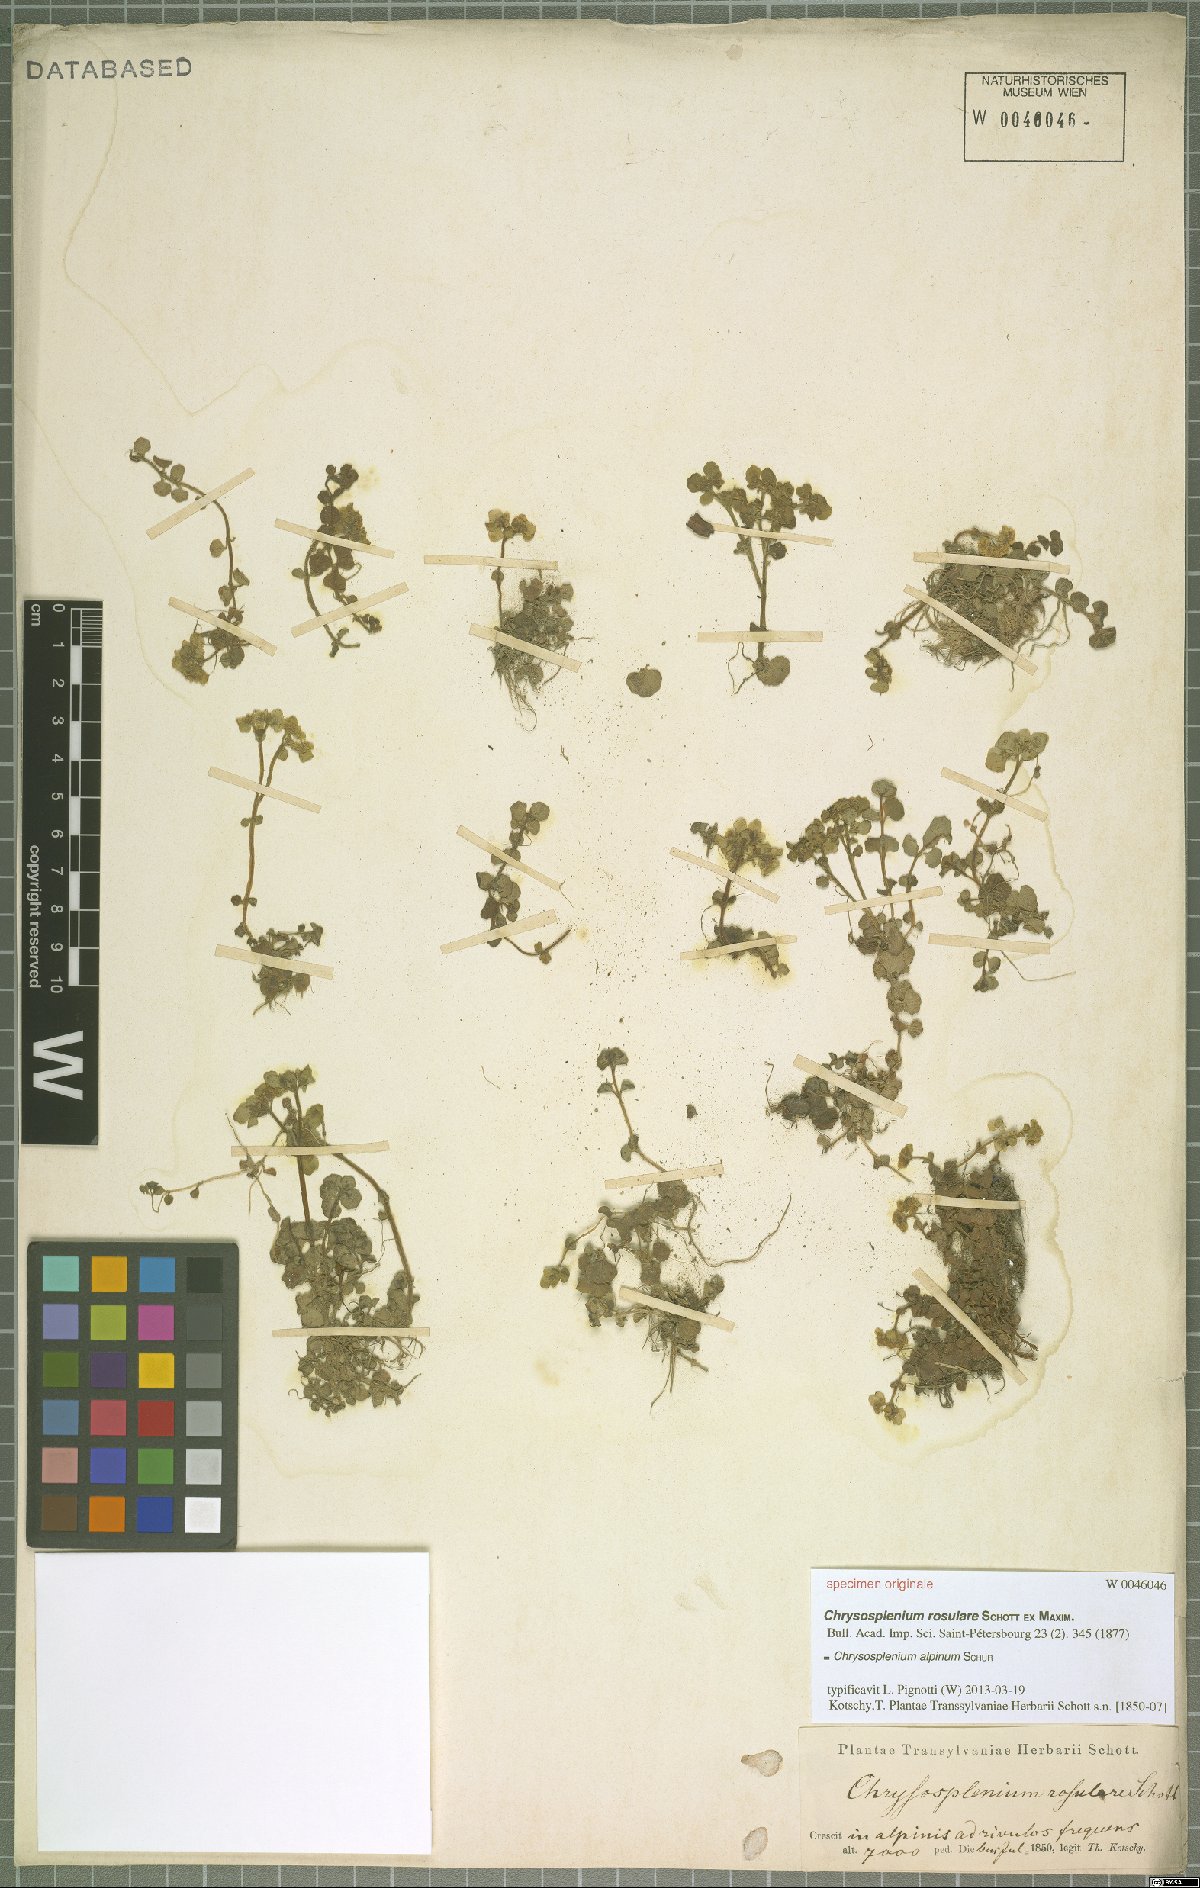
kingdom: Plantae
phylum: Tracheophyta
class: Magnoliopsida
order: Saxifragales
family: Saxifragaceae
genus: Chrysosplenium
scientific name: Chrysosplenium alpinum
